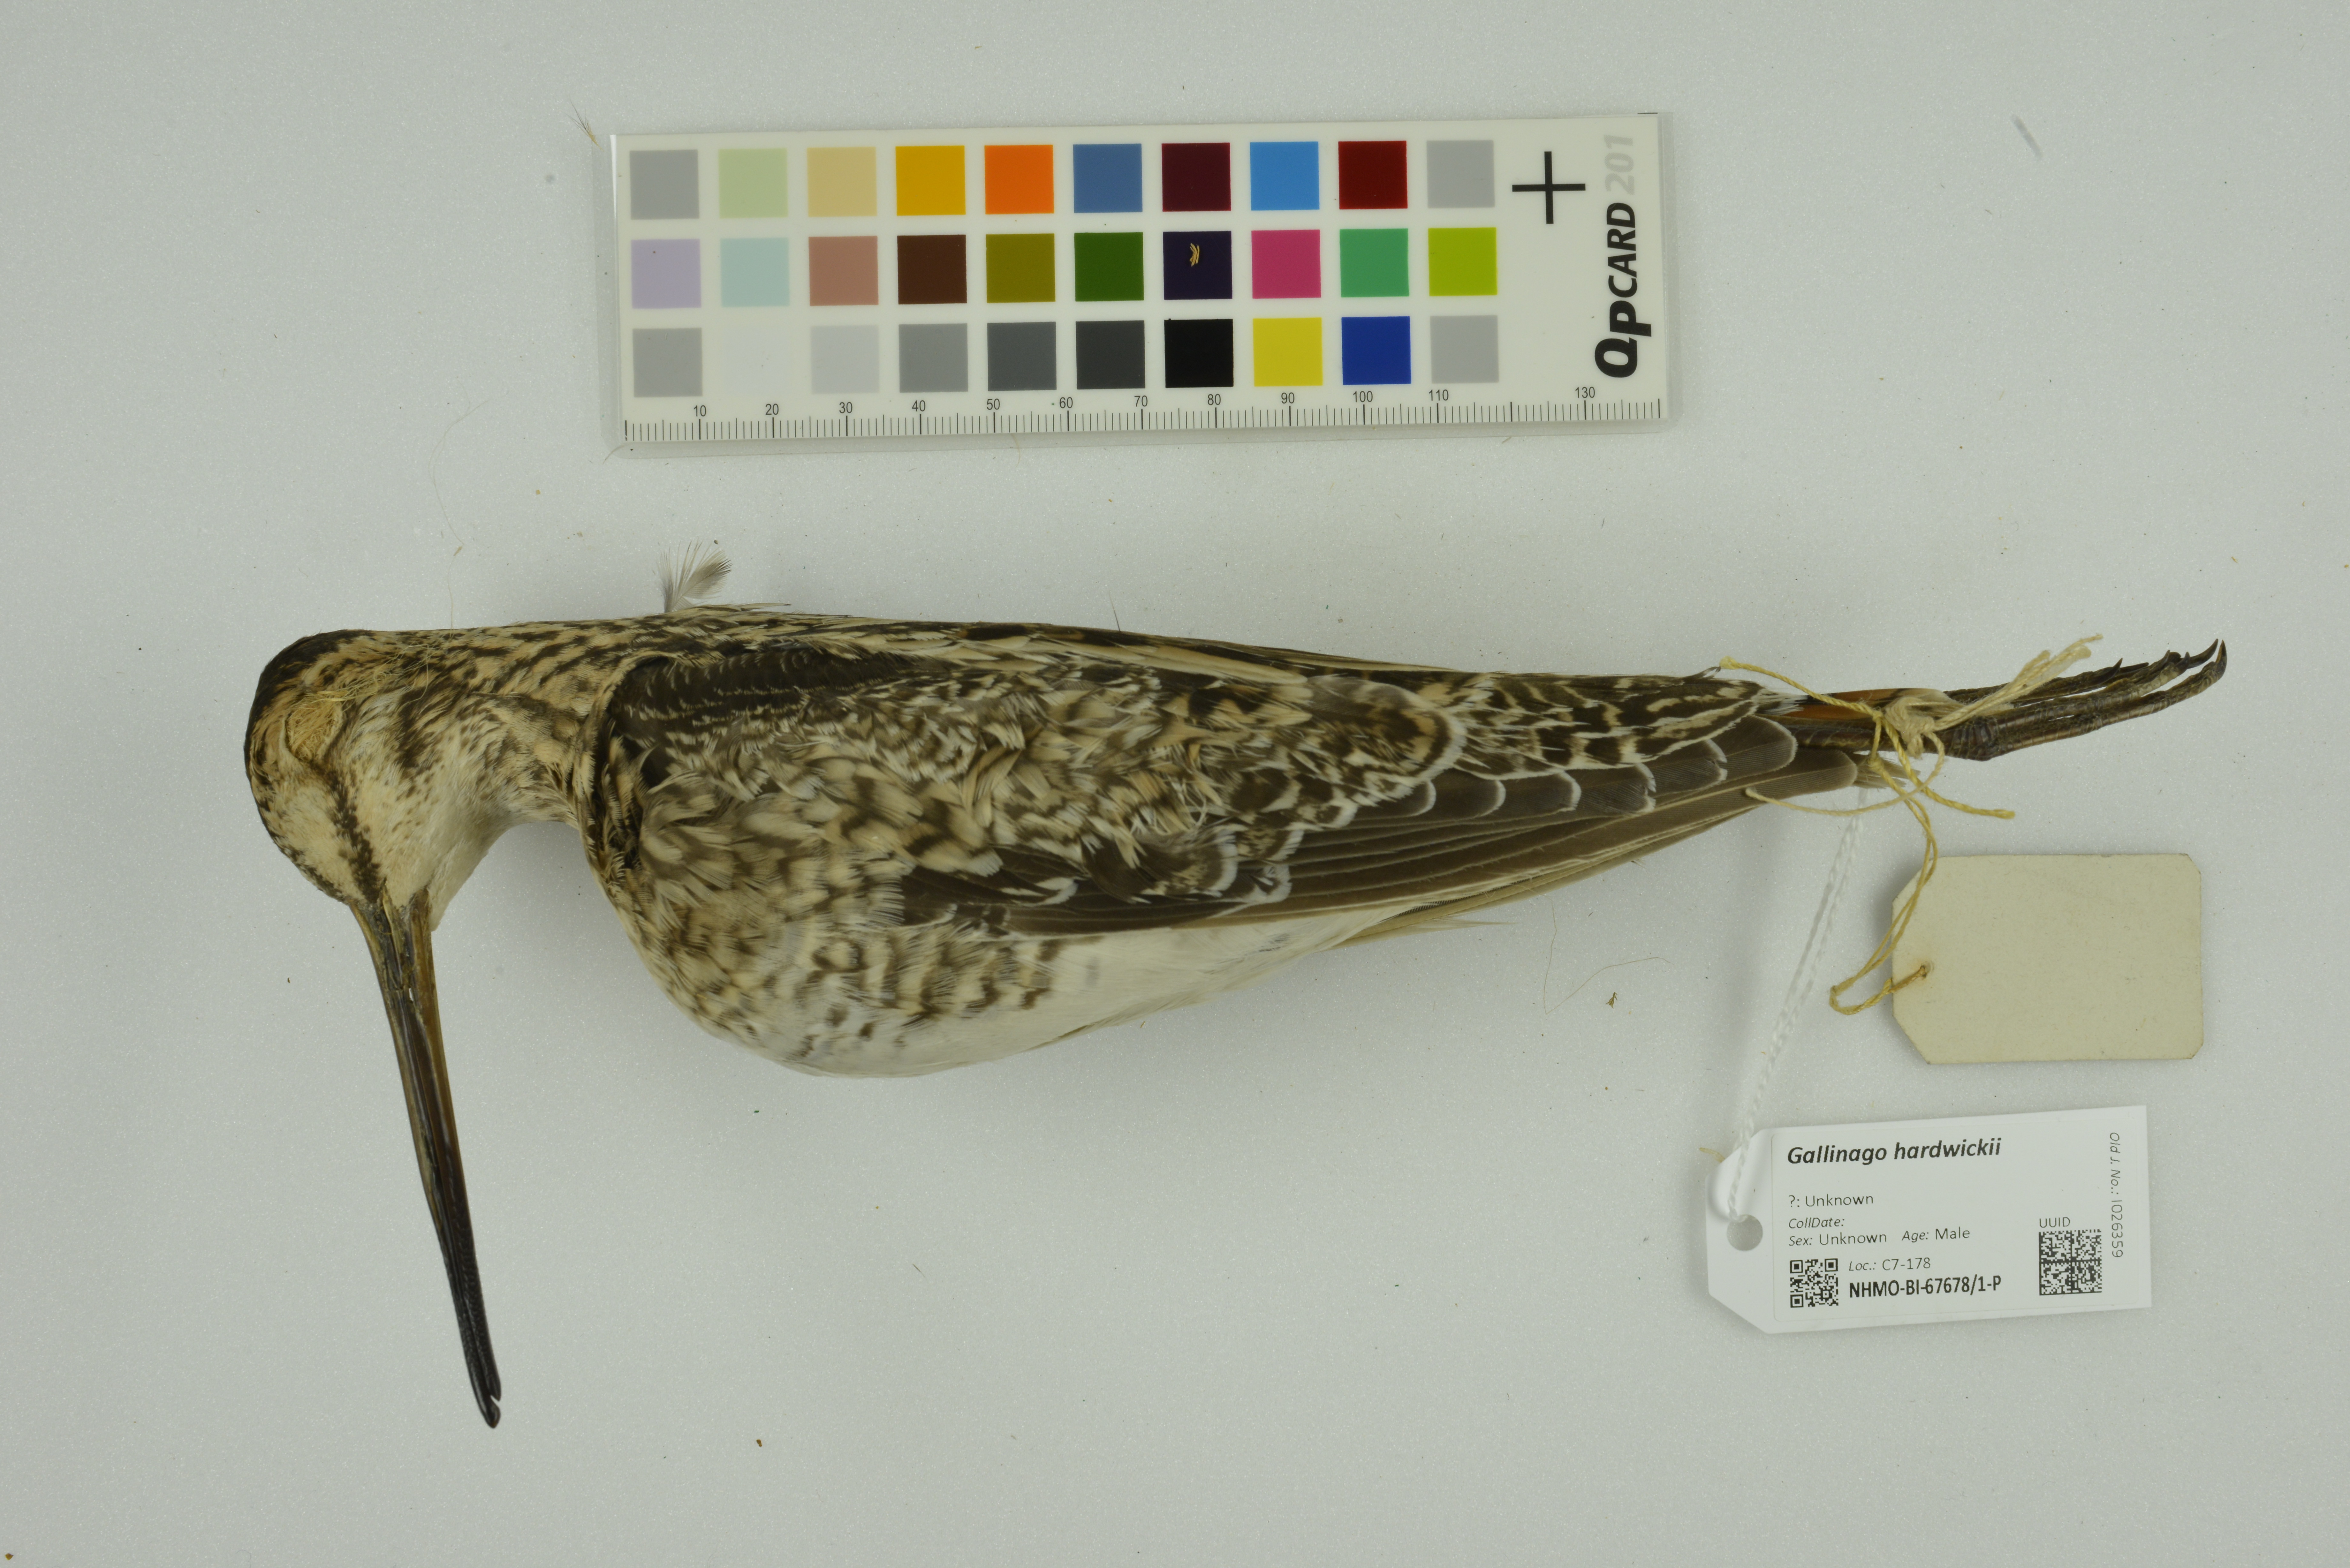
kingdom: Animalia
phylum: Chordata
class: Aves
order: Charadriiformes
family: Scolopacidae
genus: Gallinago
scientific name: Gallinago hardwickii
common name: Latham's snipe
